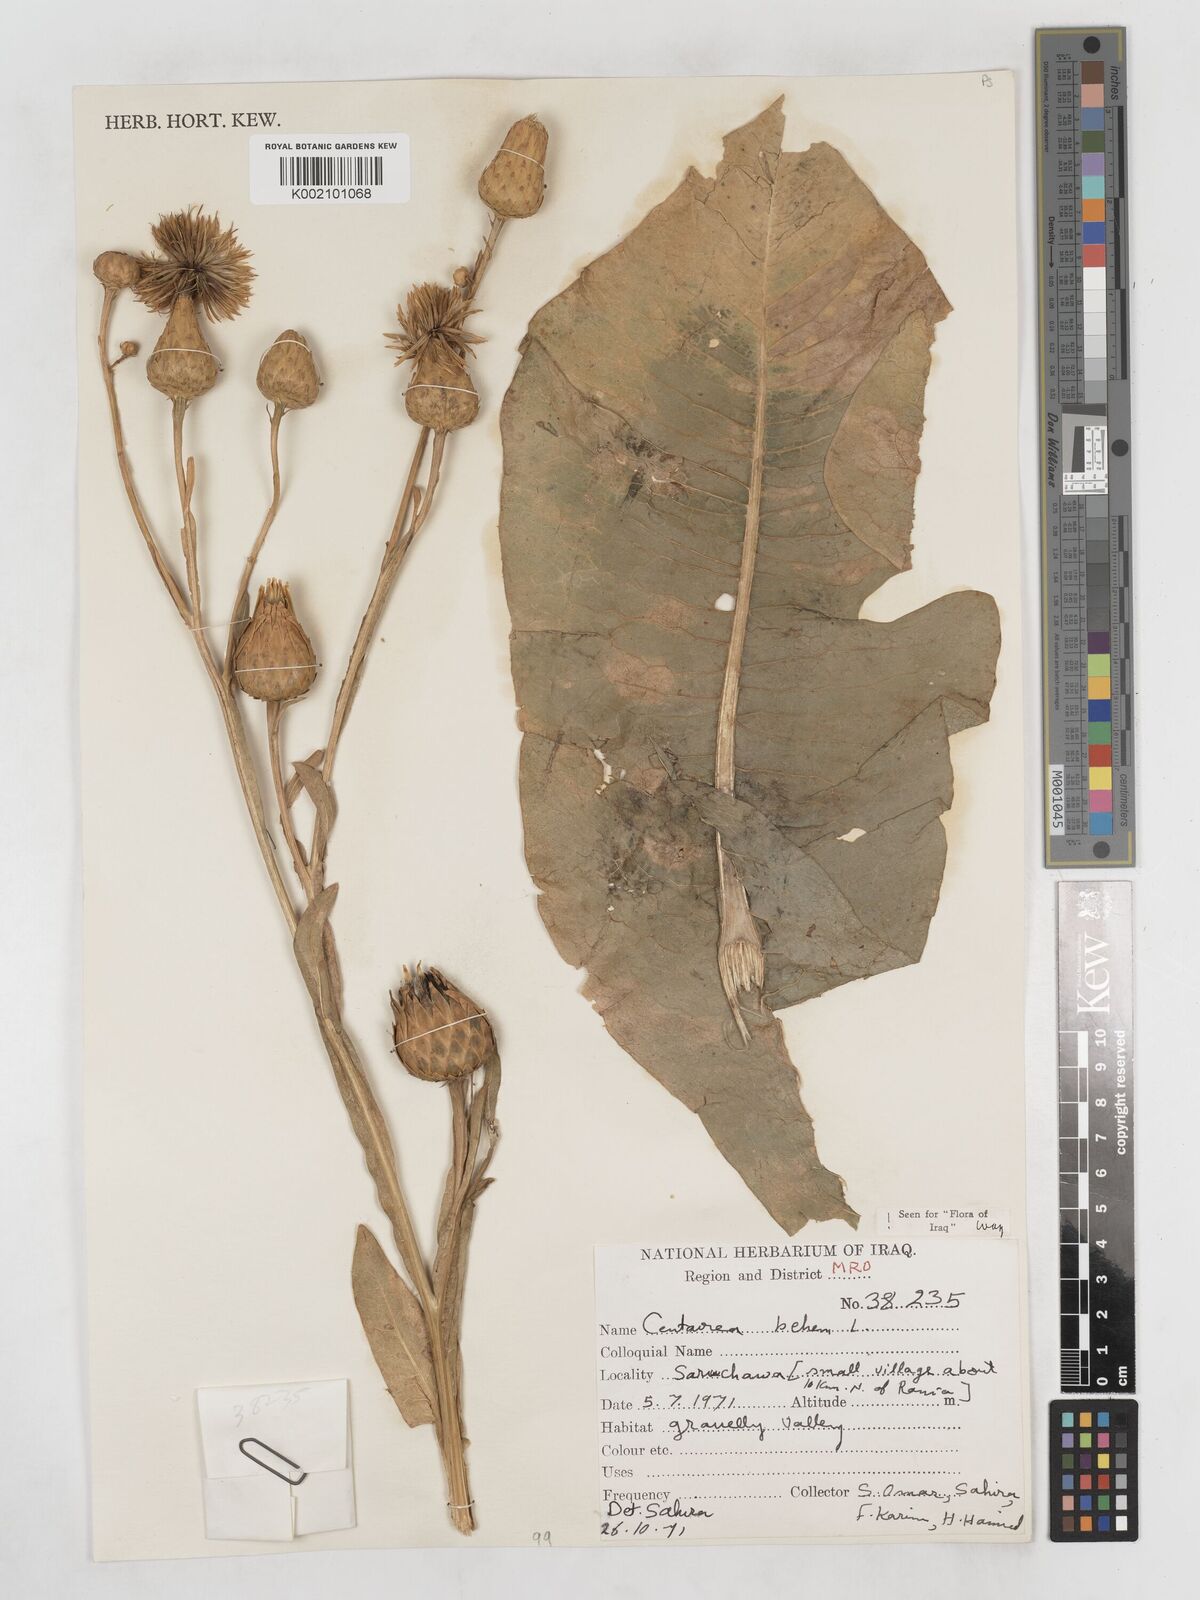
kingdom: Plantae
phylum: Tracheophyta
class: Magnoliopsida
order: Asterales
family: Asteraceae
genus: Centaurea
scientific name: Centaurea behen
